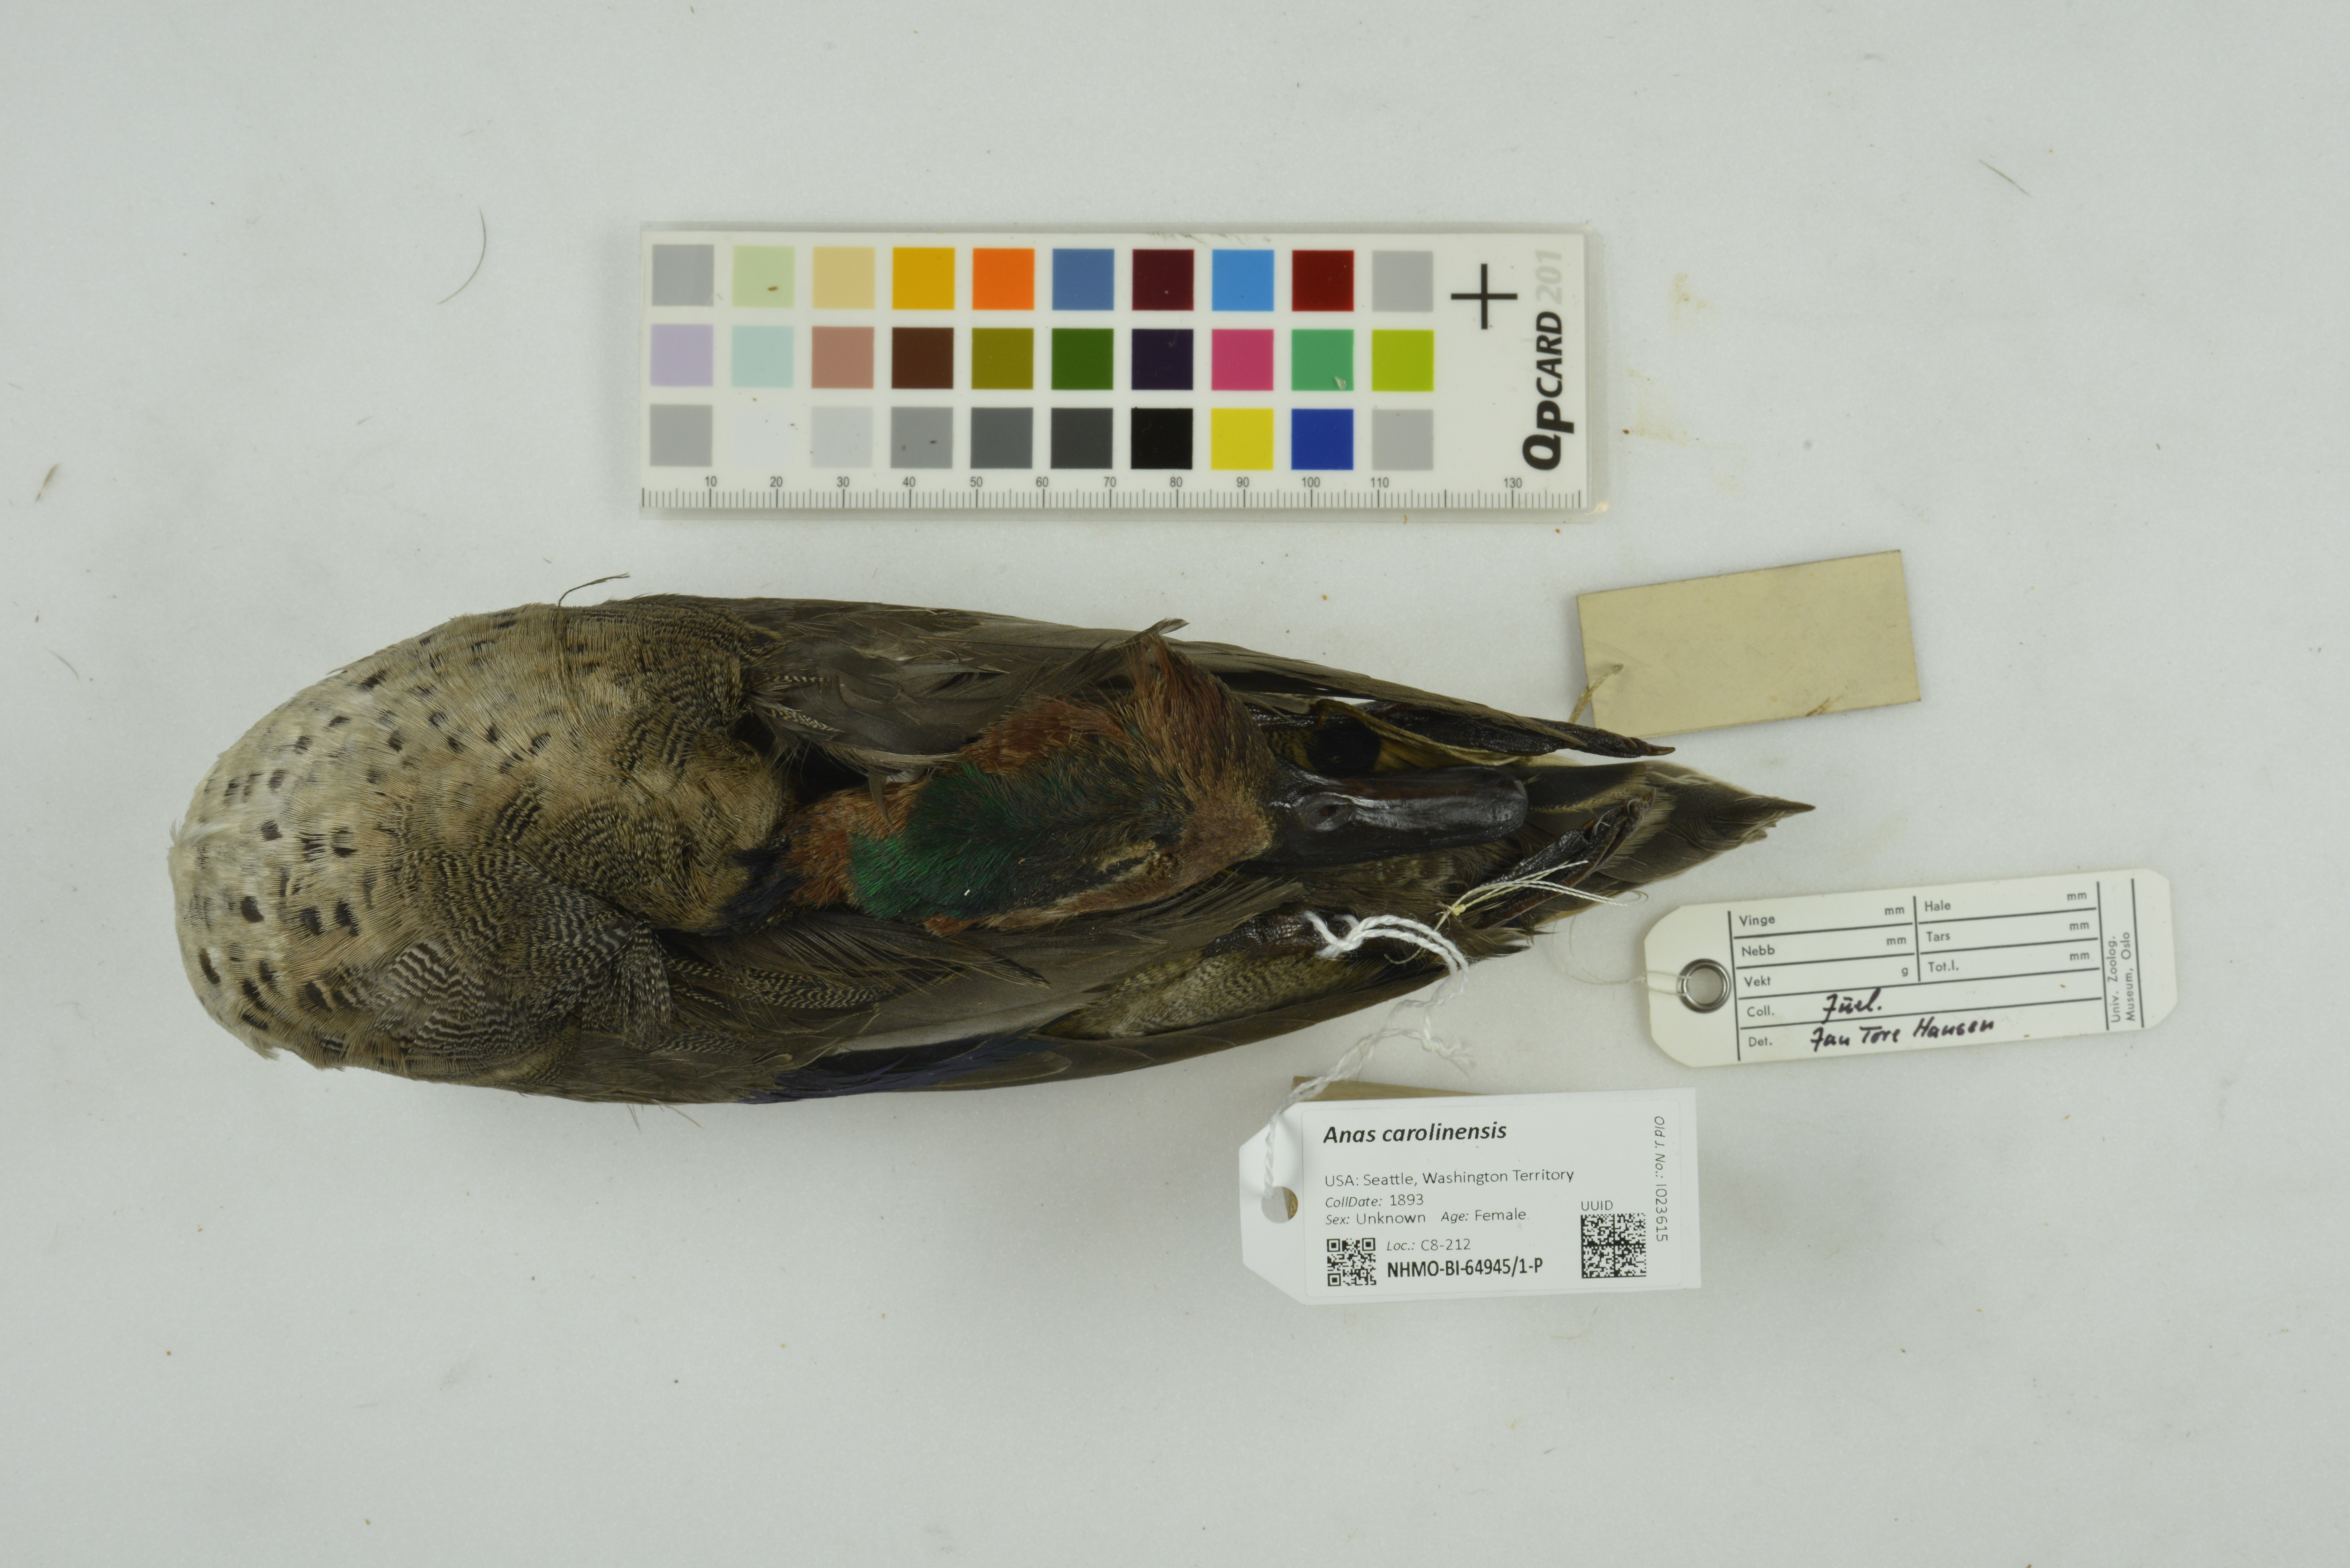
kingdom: Animalia
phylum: Chordata
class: Aves
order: Anseriformes
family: Anatidae
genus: Anas
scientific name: Anas carolinensis
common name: Green-winged teal
